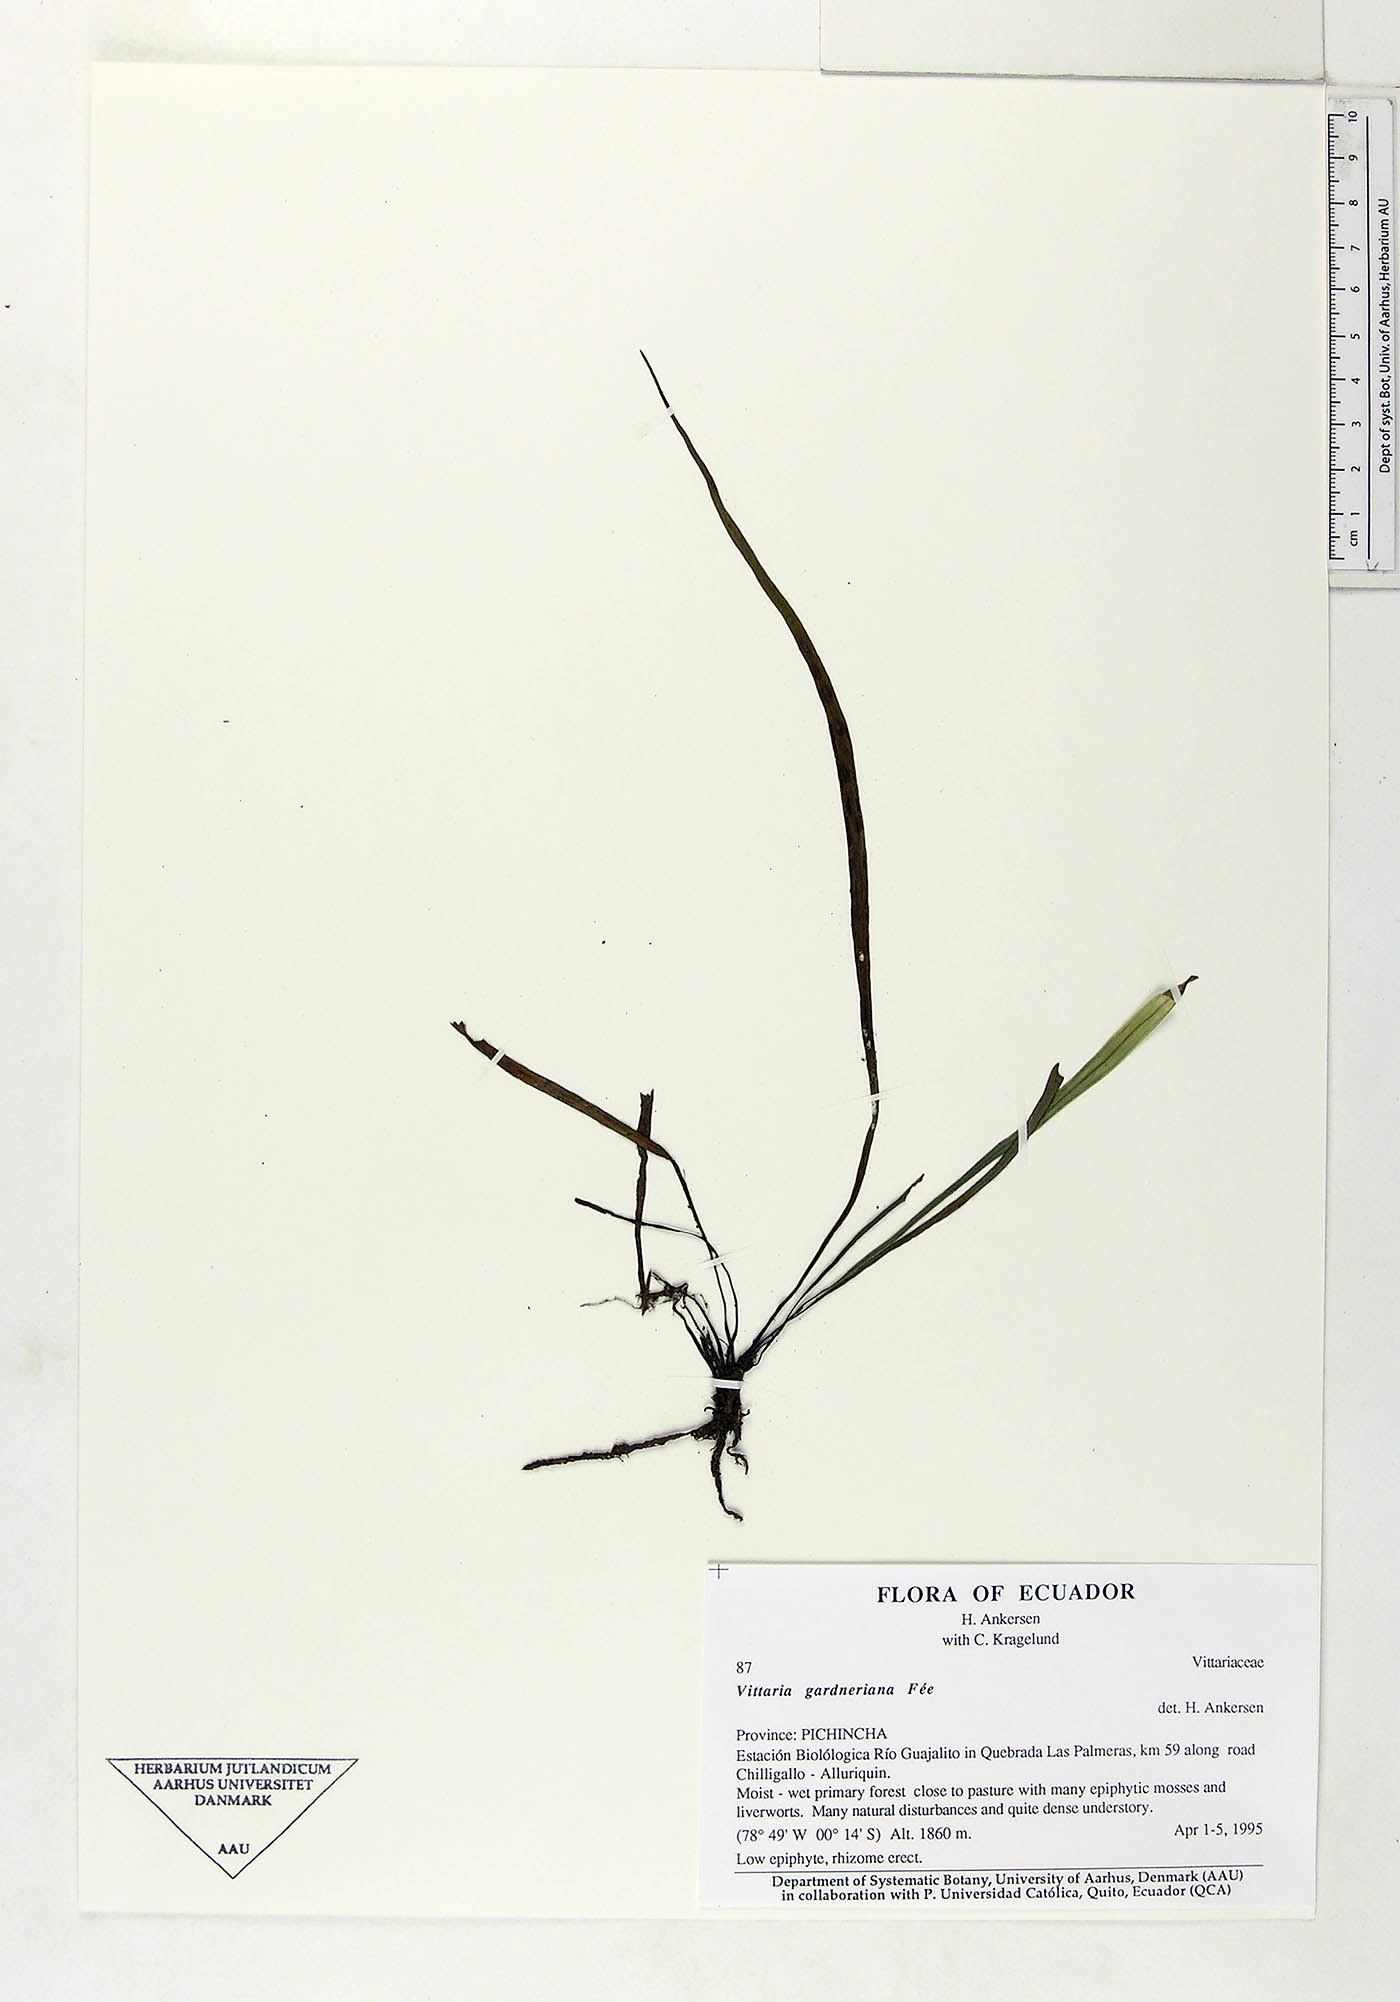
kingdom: Plantae
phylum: Tracheophyta
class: Polypodiopsida
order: Polypodiales
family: Pteridaceae
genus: Radiovittaria
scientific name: Radiovittaria gardneriana
